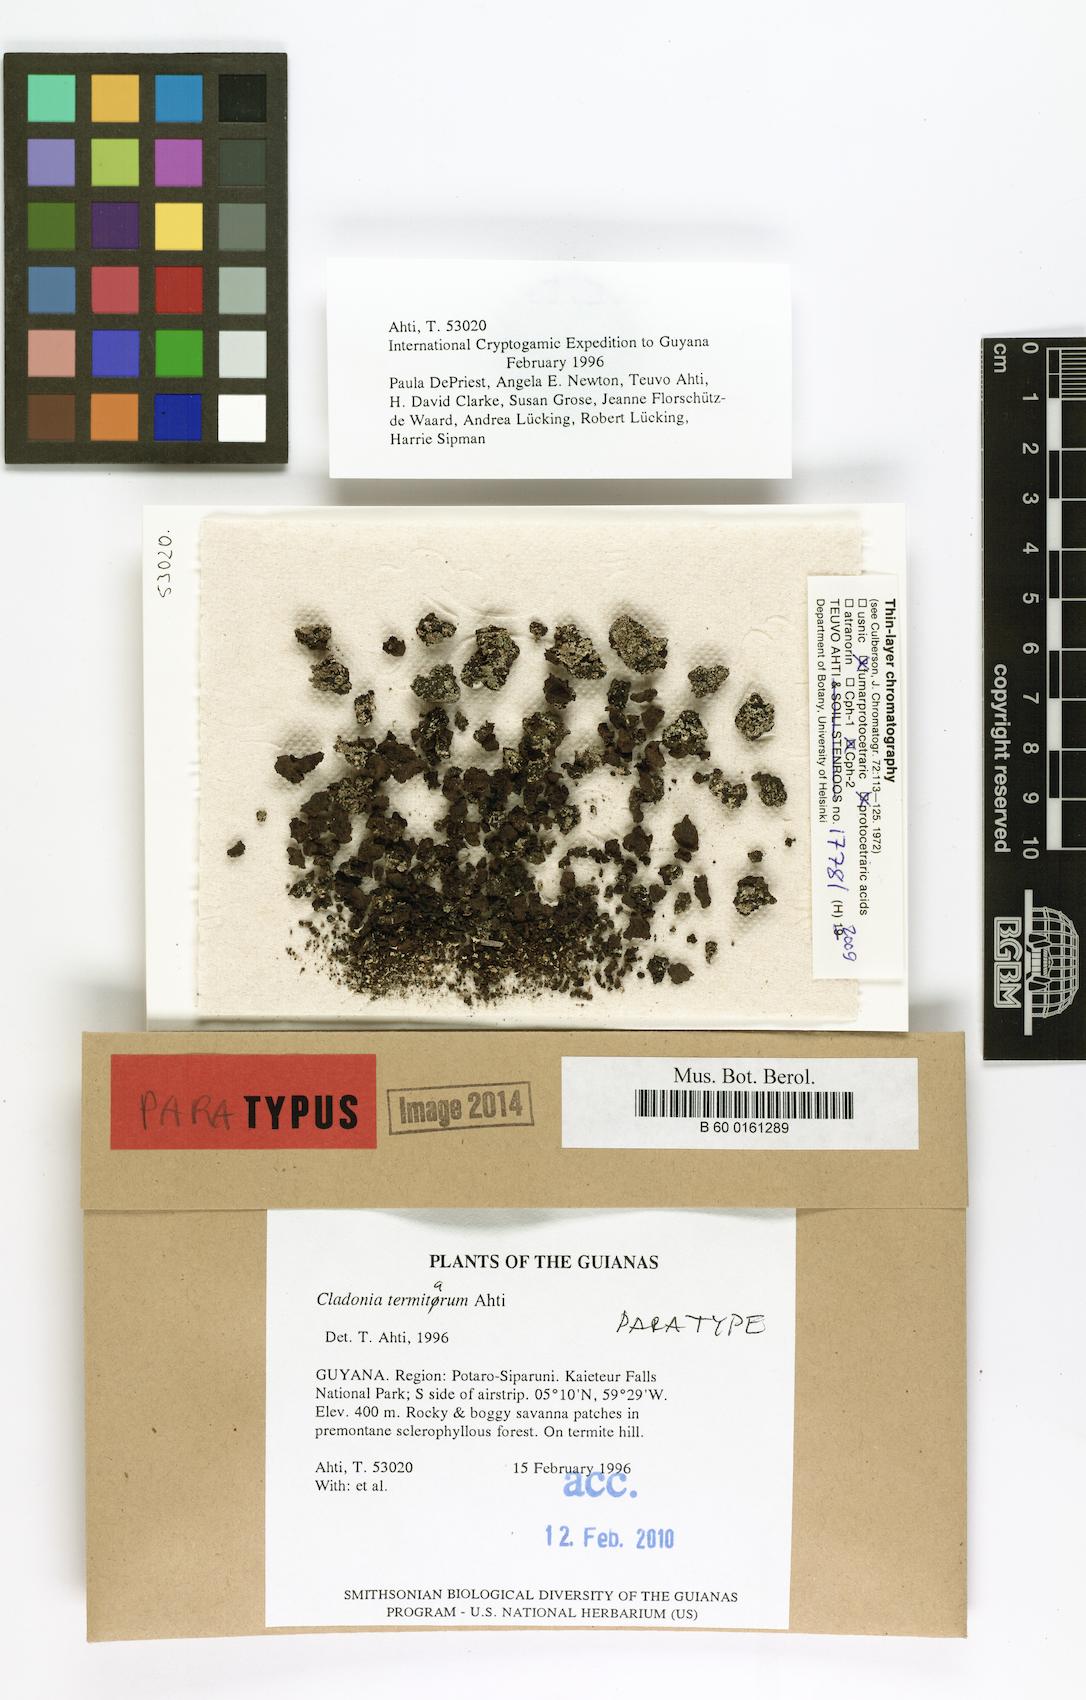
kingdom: Fungi
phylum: Ascomycota
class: Lecanoromycetes
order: Lecanorales
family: Cladoniaceae
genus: Cladonia
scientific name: Cladonia termitarum
